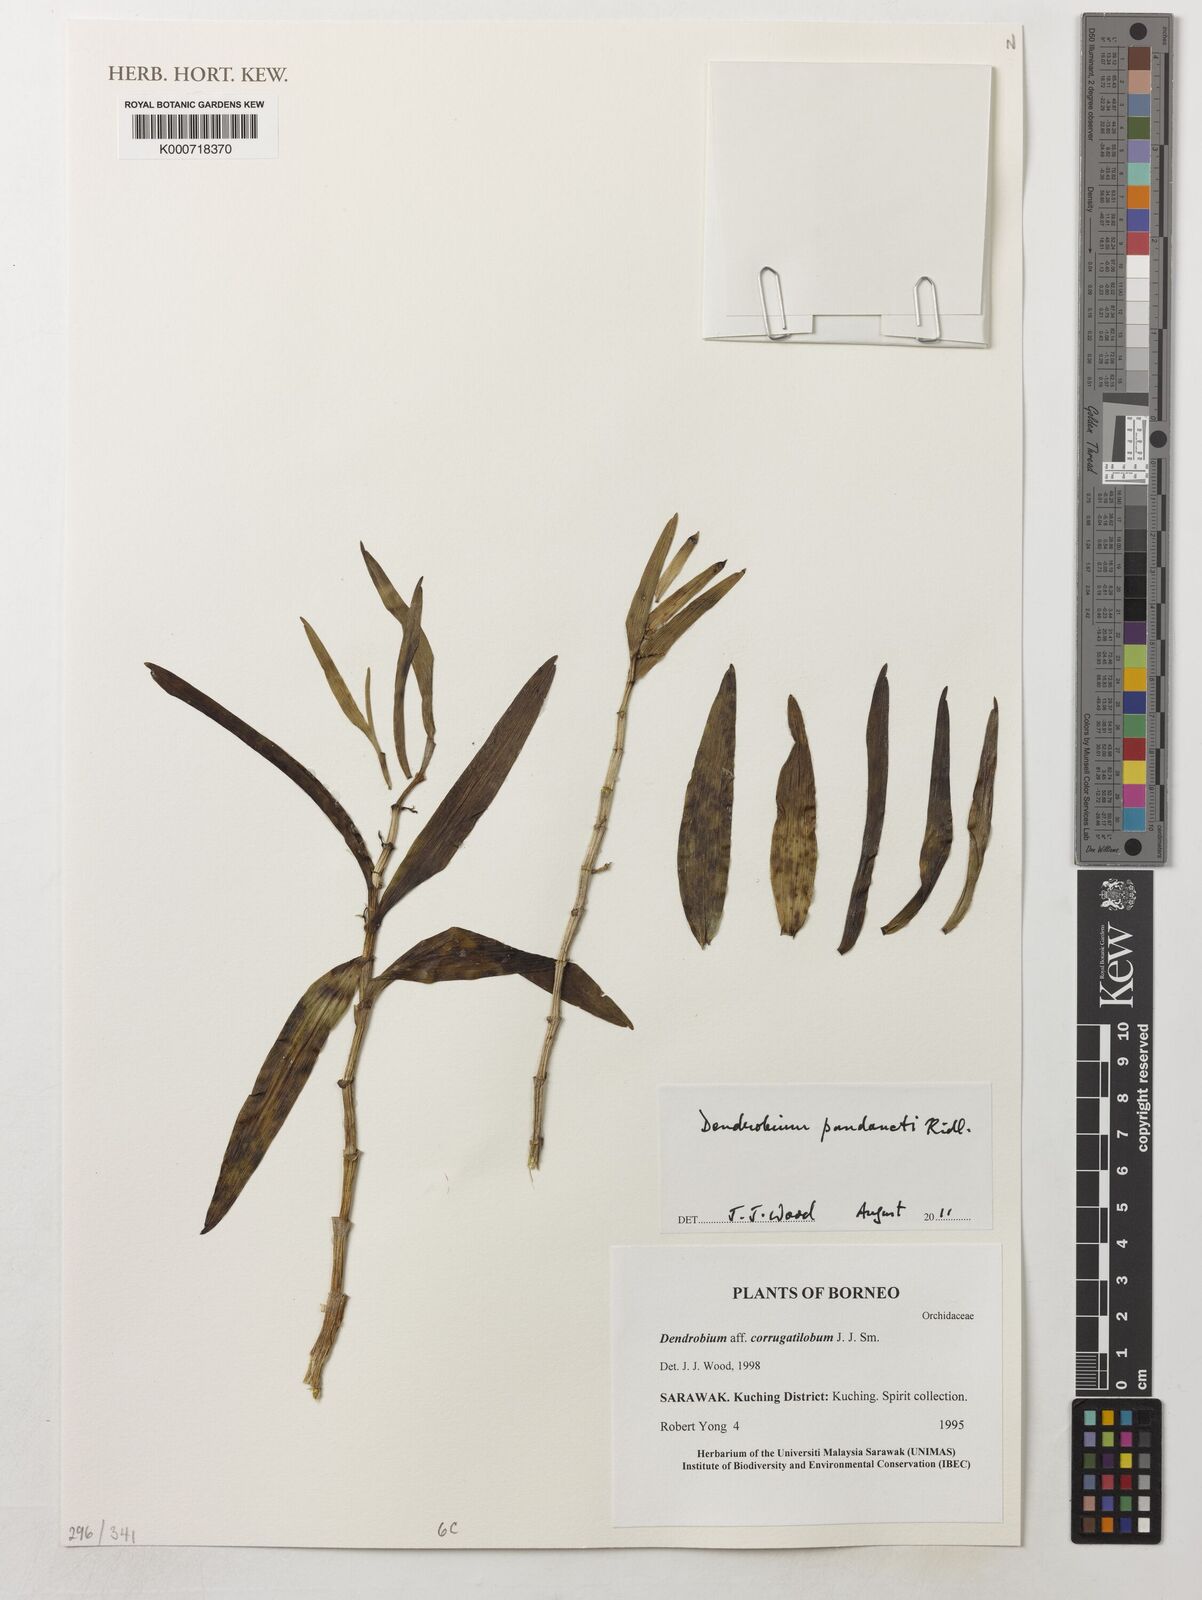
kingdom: Plantae
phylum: Tracheophyta
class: Liliopsida
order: Asparagales
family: Orchidaceae
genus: Dendrobium
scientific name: Dendrobium dactyliferum
